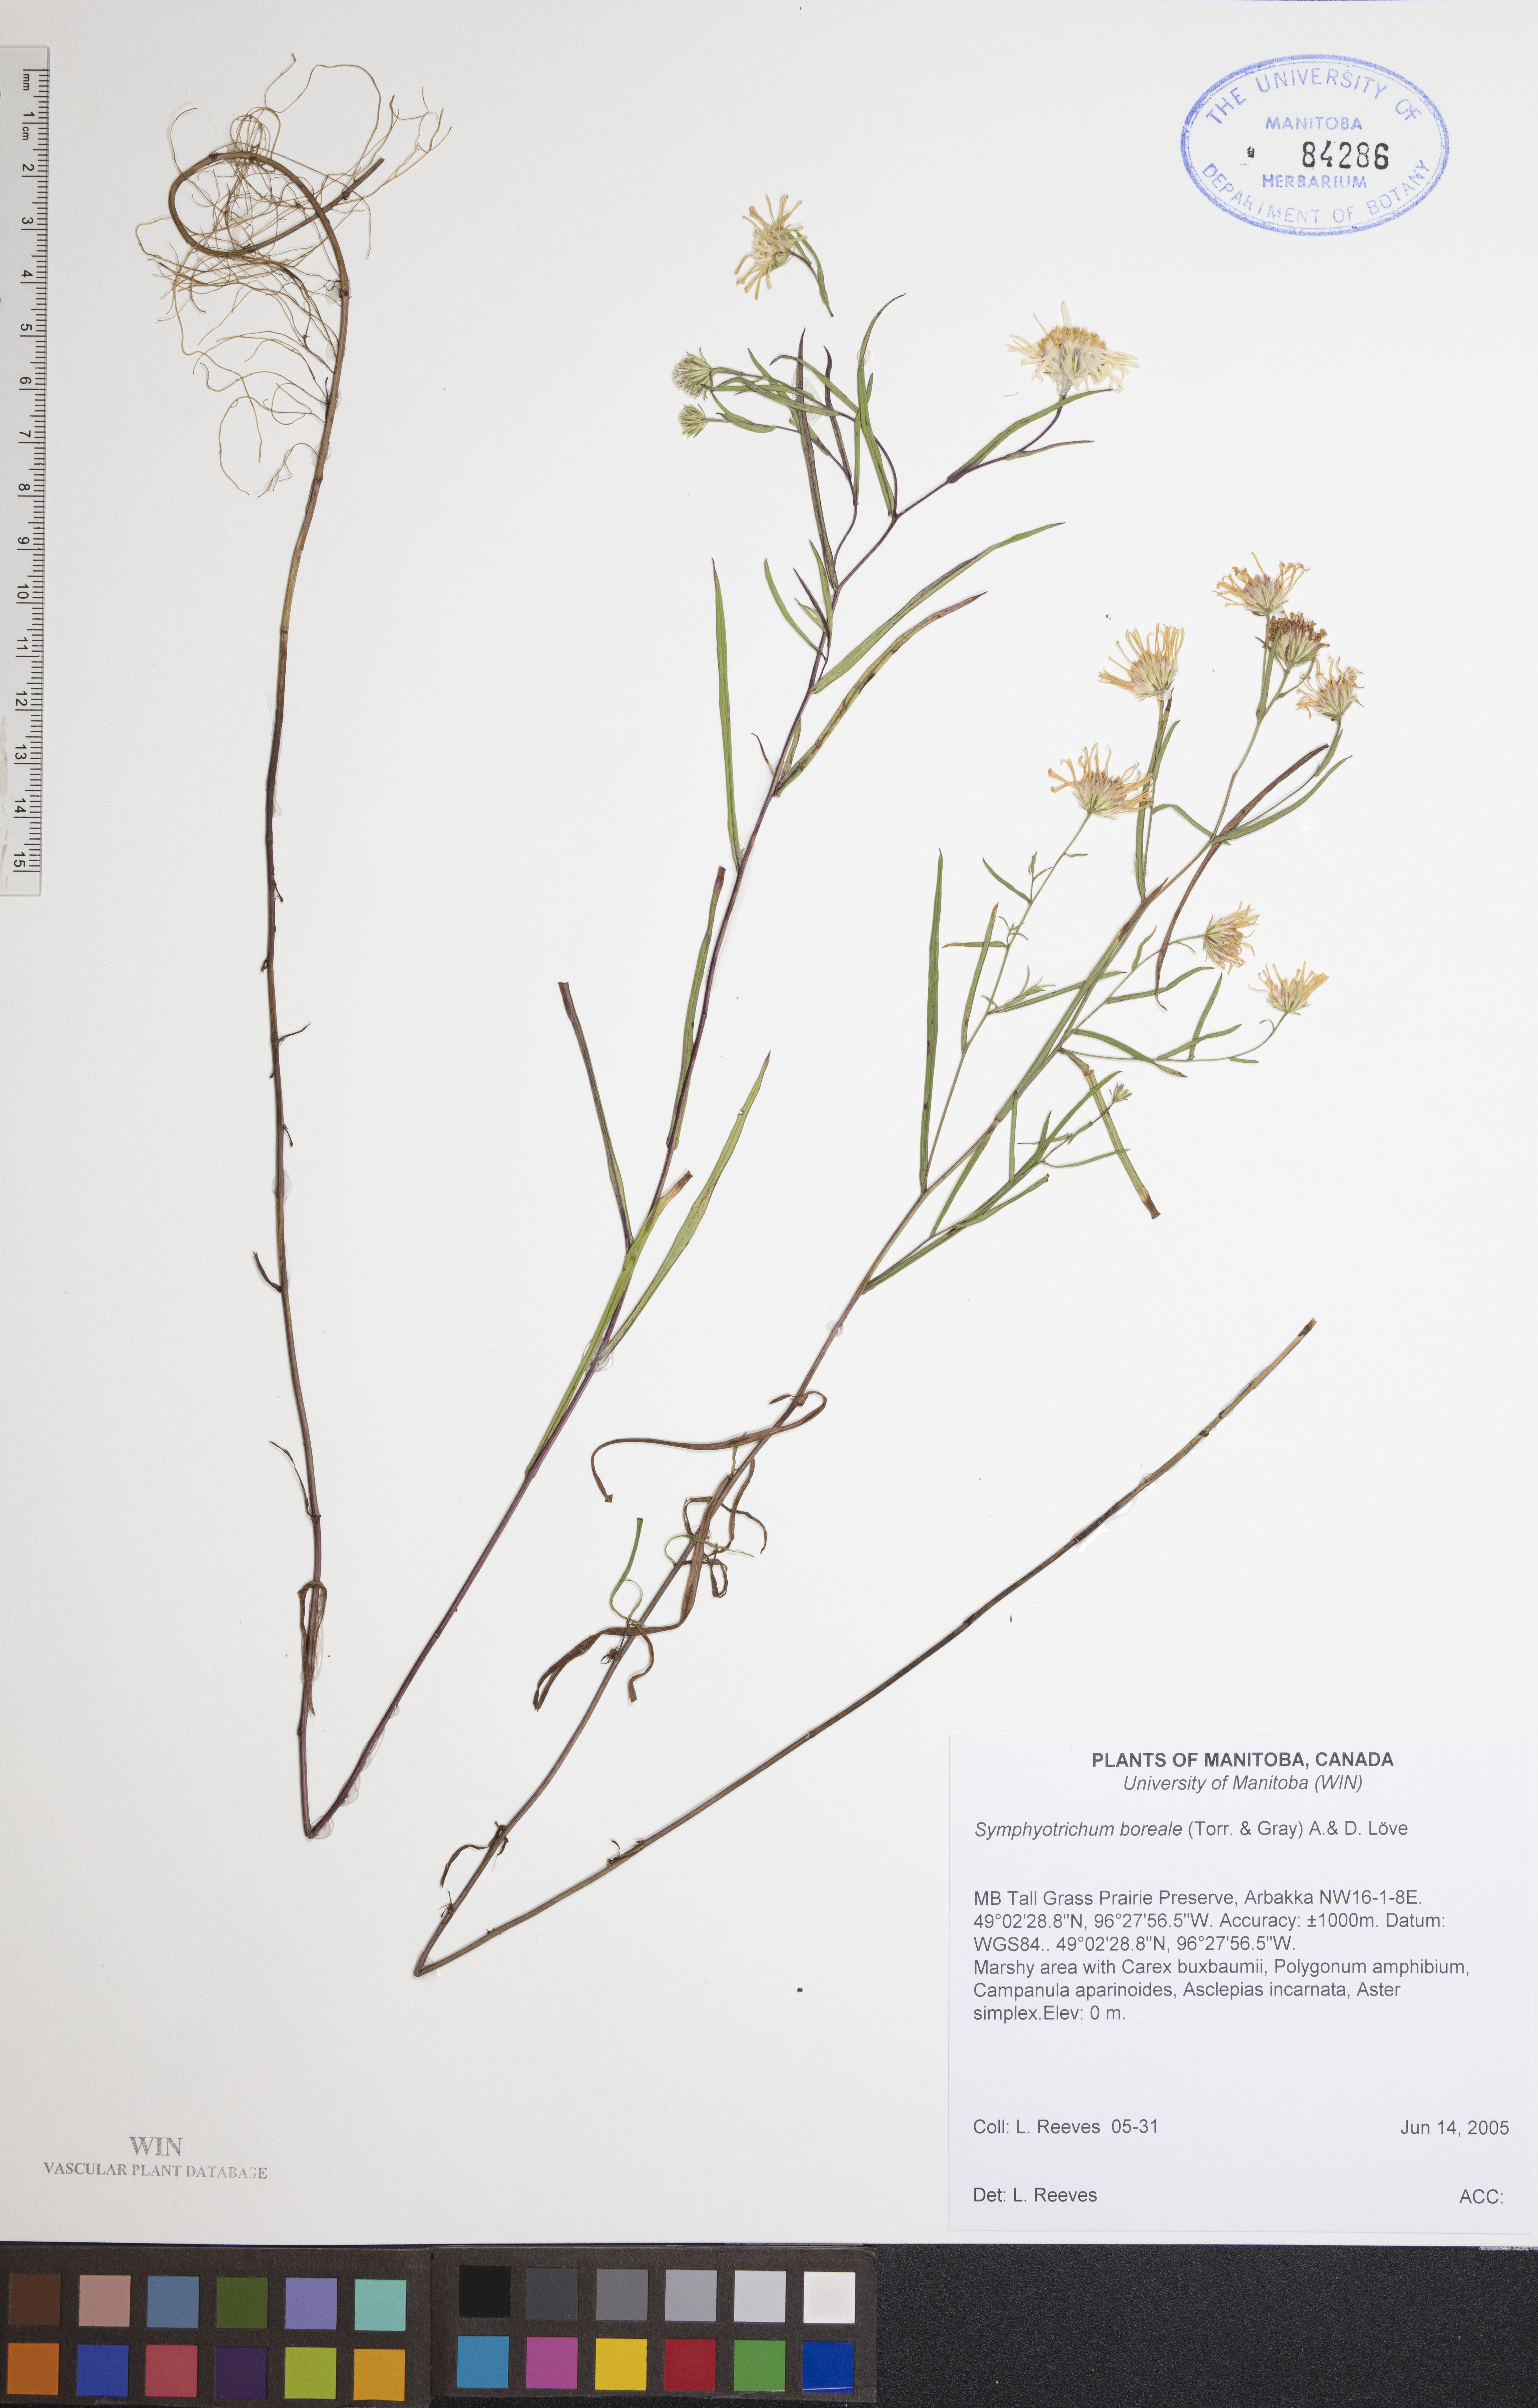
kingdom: Plantae
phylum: Tracheophyta
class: Magnoliopsida
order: Asterales
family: Asteraceae
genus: Symphyotrichum
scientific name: Symphyotrichum boreale
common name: Northern bog aster
